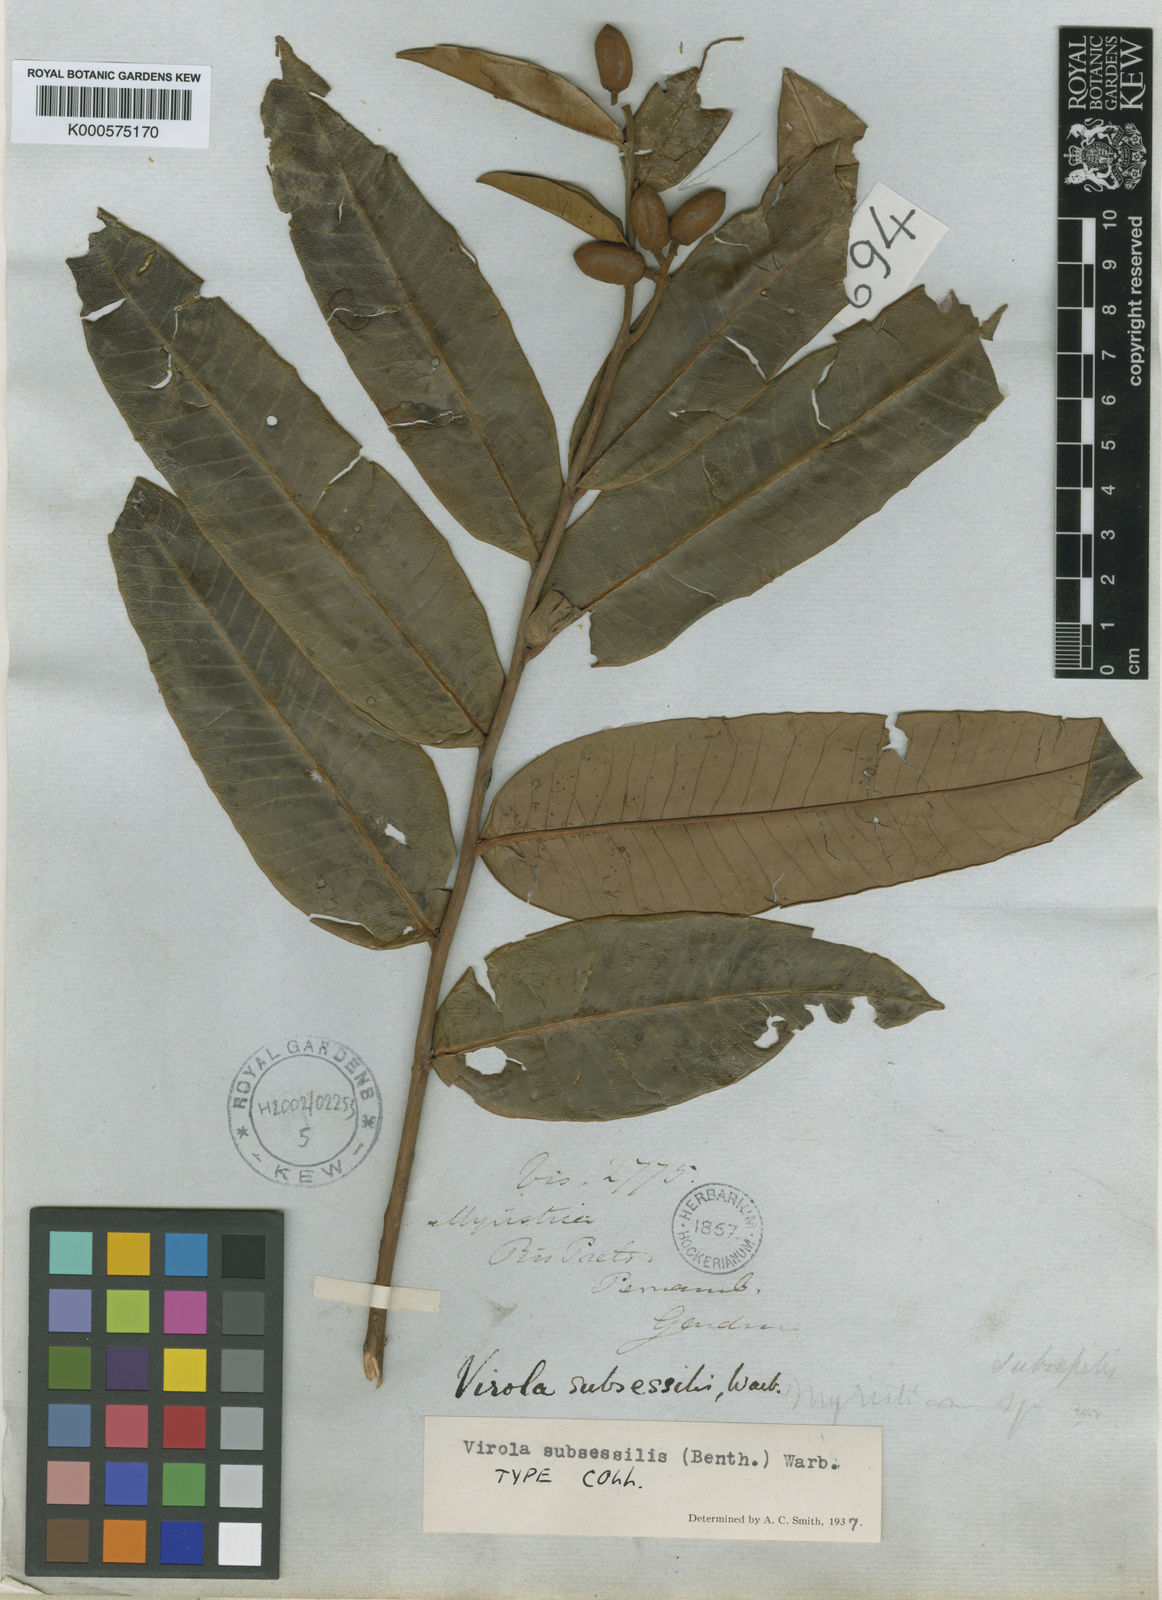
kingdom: Plantae
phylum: Tracheophyta
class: Magnoliopsida
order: Magnoliales
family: Myristicaceae
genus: Virola
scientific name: Virola subsessilis
